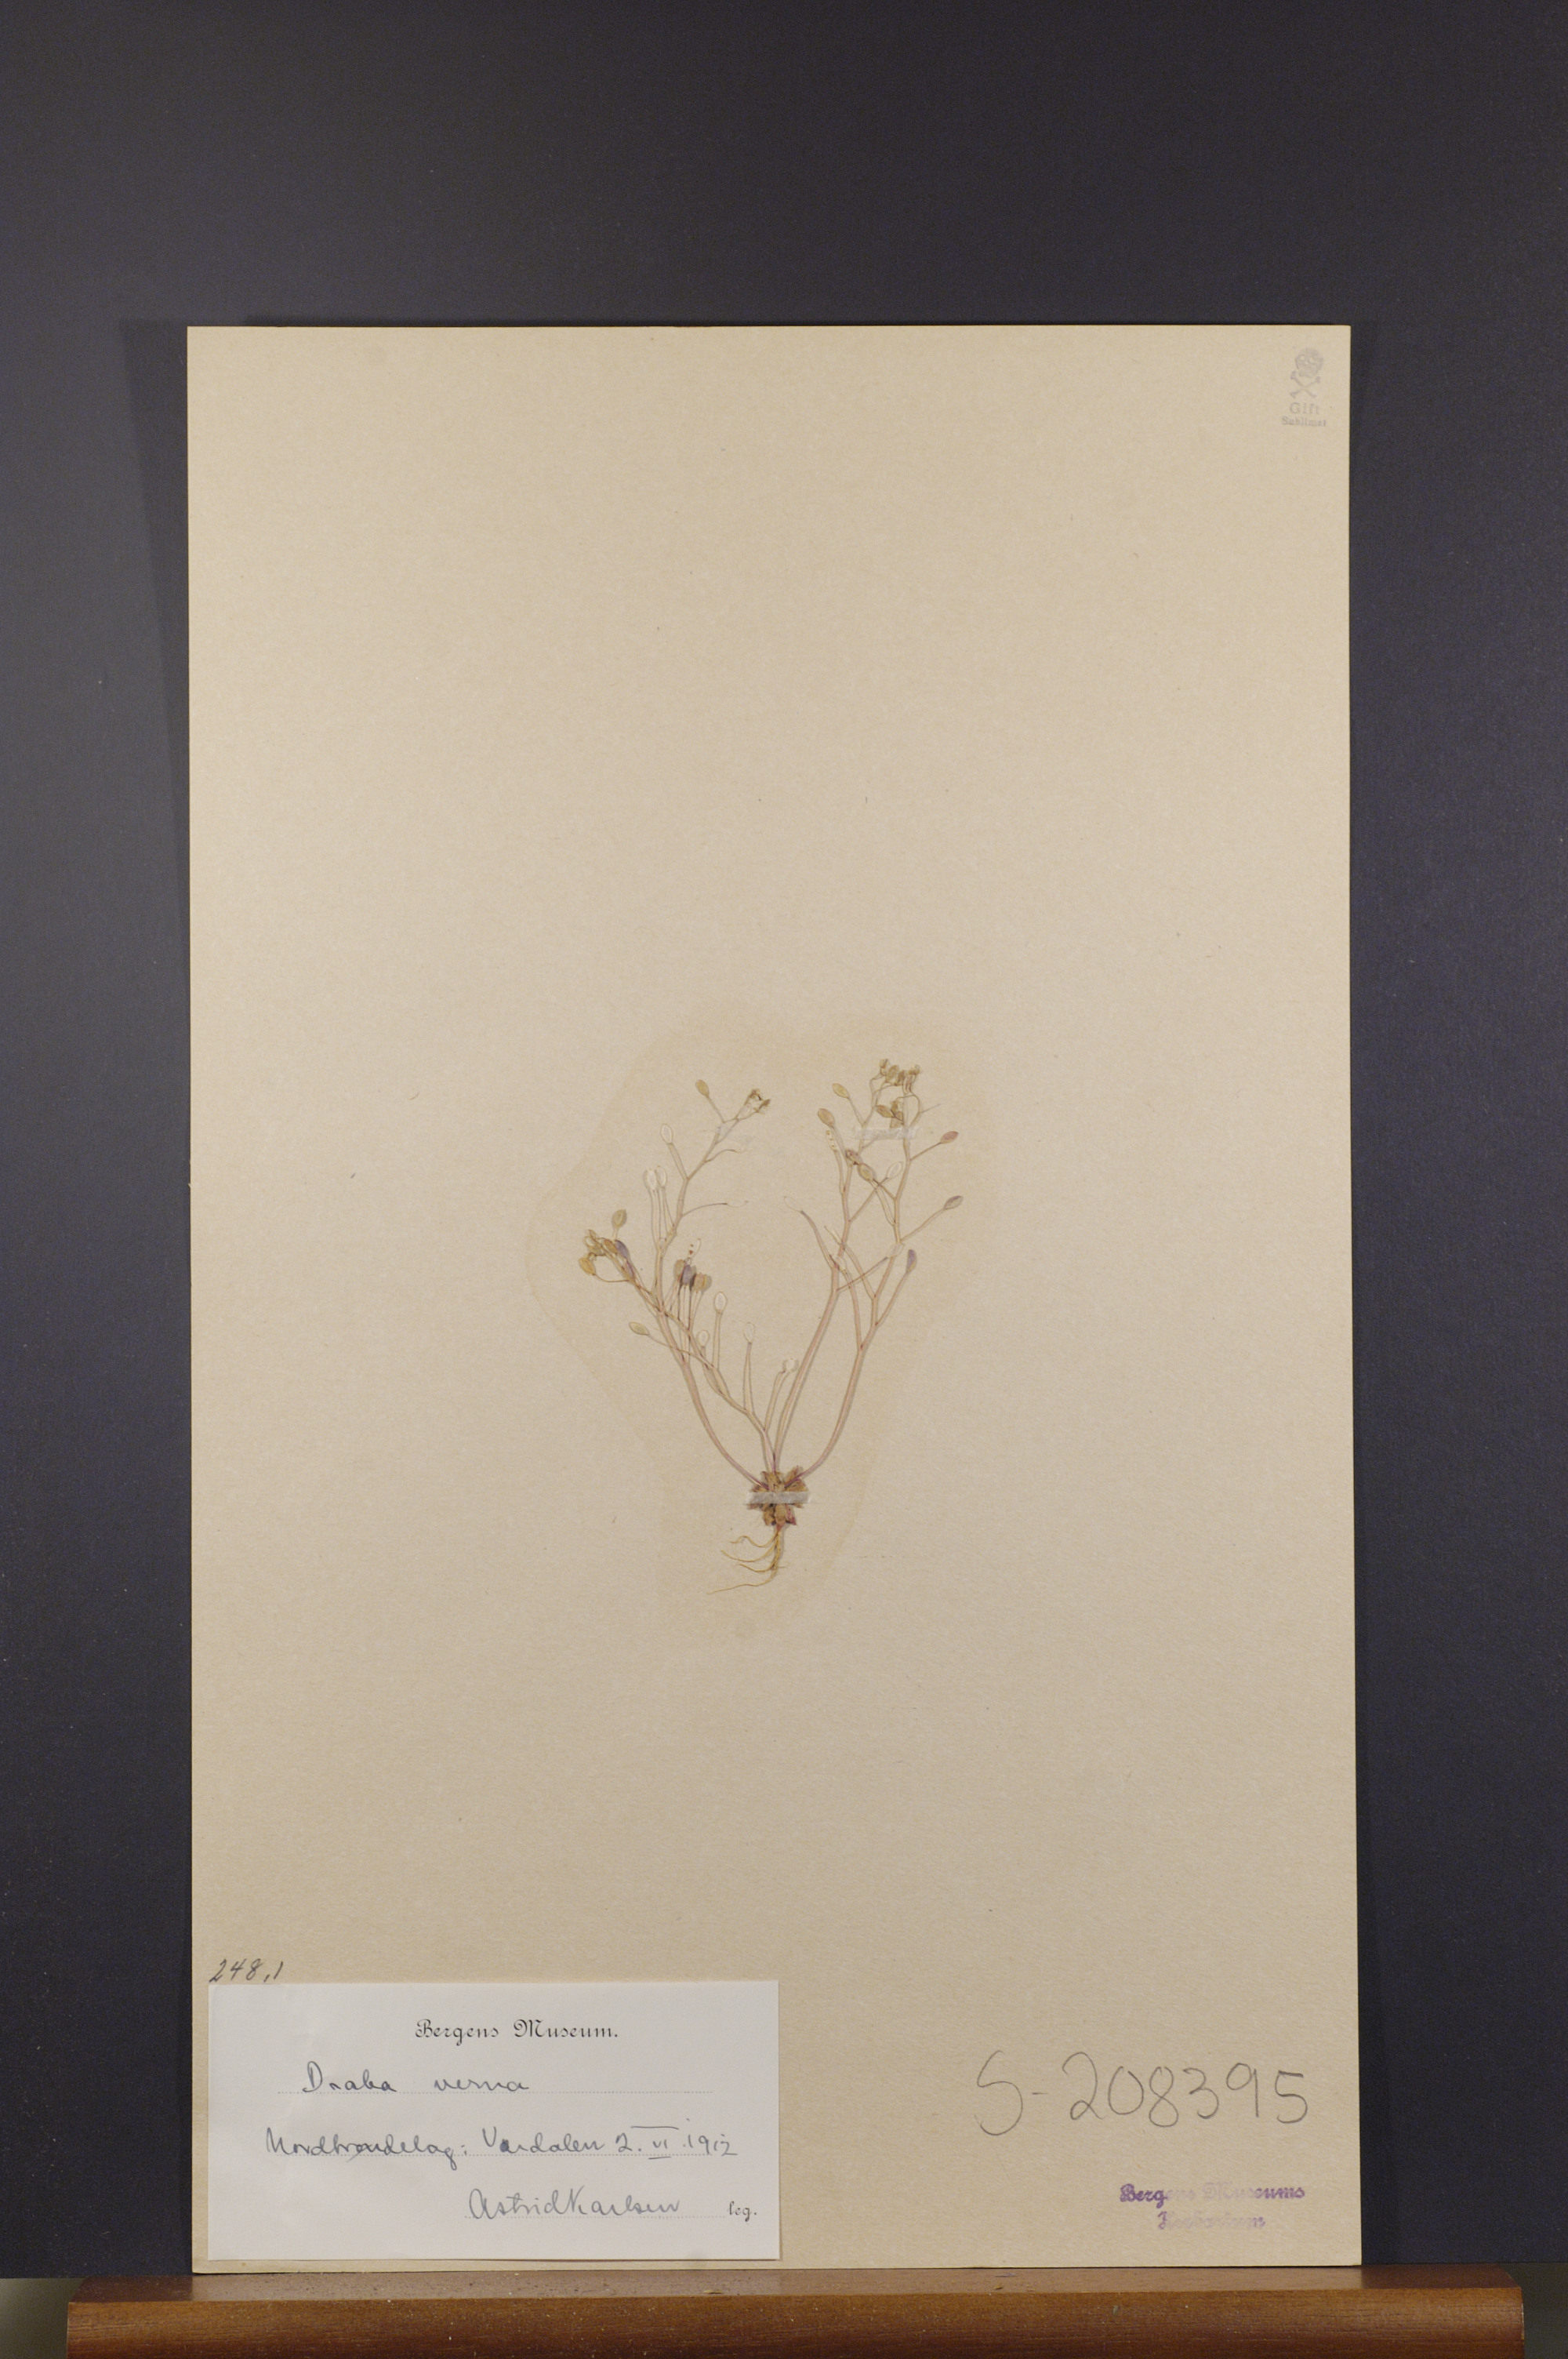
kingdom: Plantae
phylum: Tracheophyta
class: Magnoliopsida
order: Brassicales
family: Brassicaceae
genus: Draba
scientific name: Draba verna
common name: Spring draba
